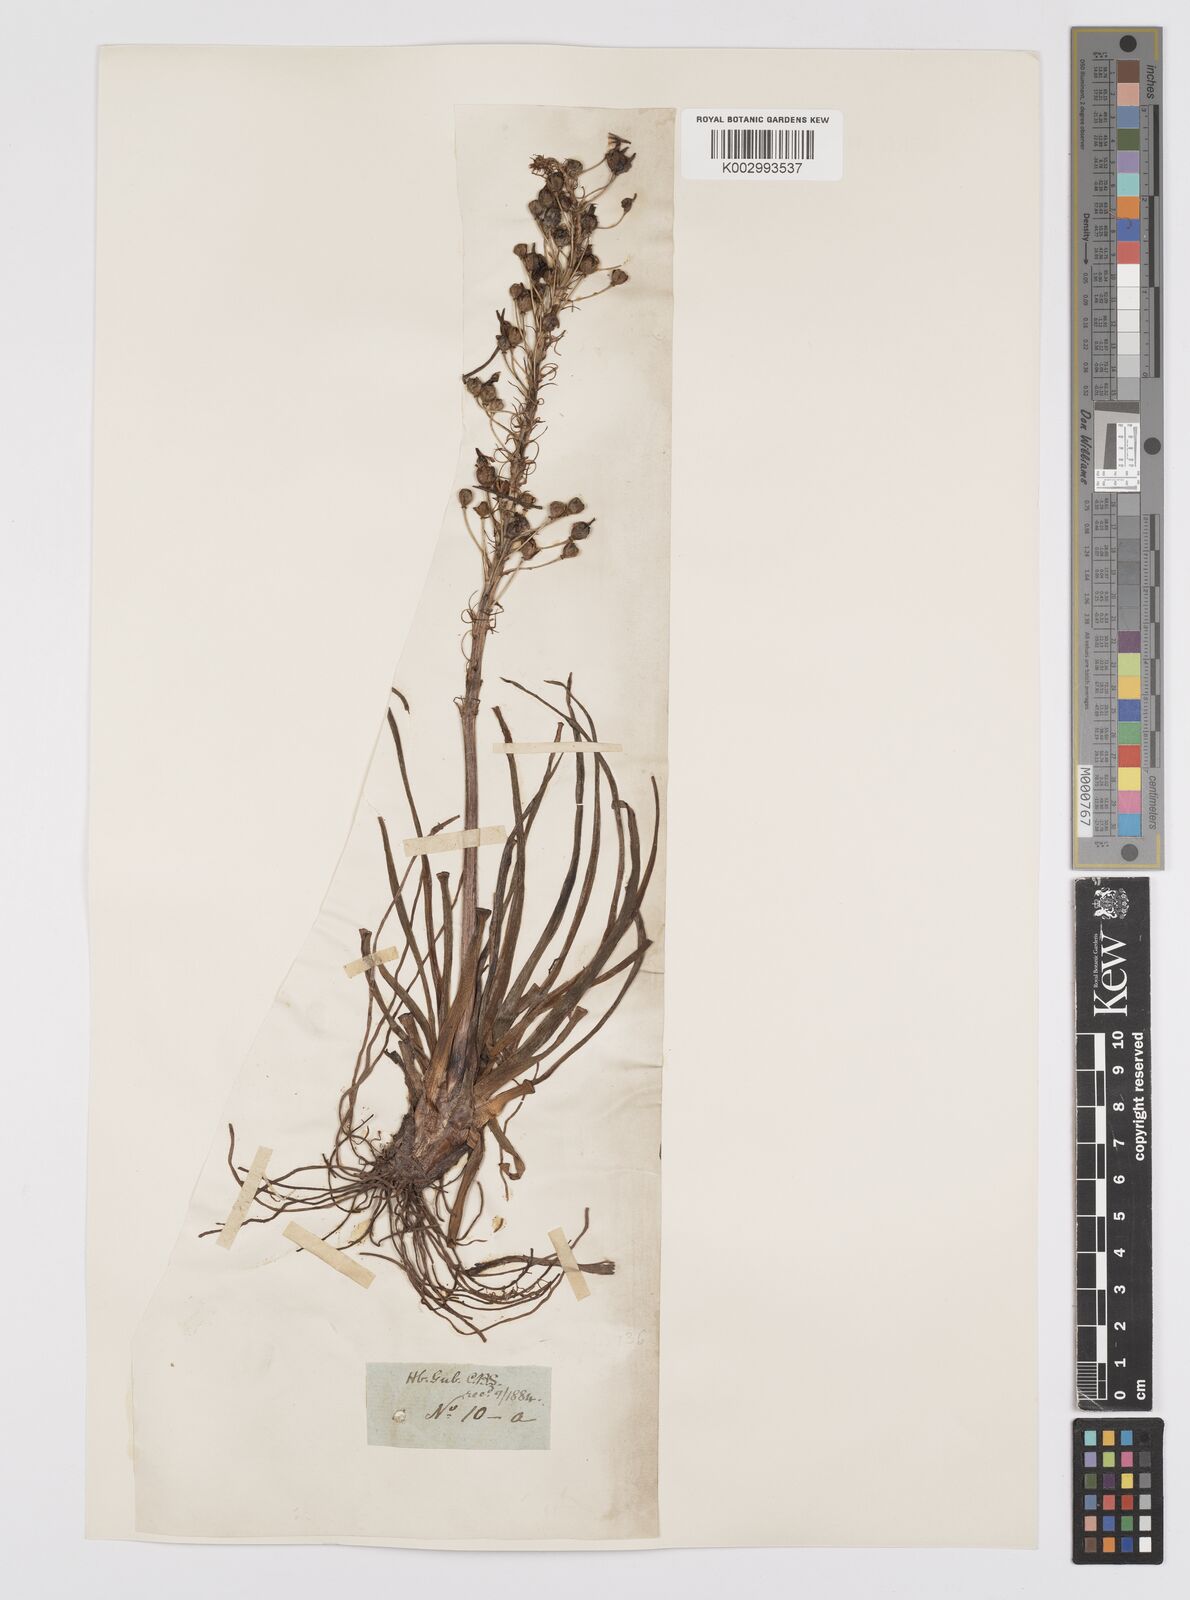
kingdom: Plantae
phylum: Tracheophyta
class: Liliopsida
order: Asparagales
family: Asphodelaceae
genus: Bulbine
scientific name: Bulbine asphodeloides
